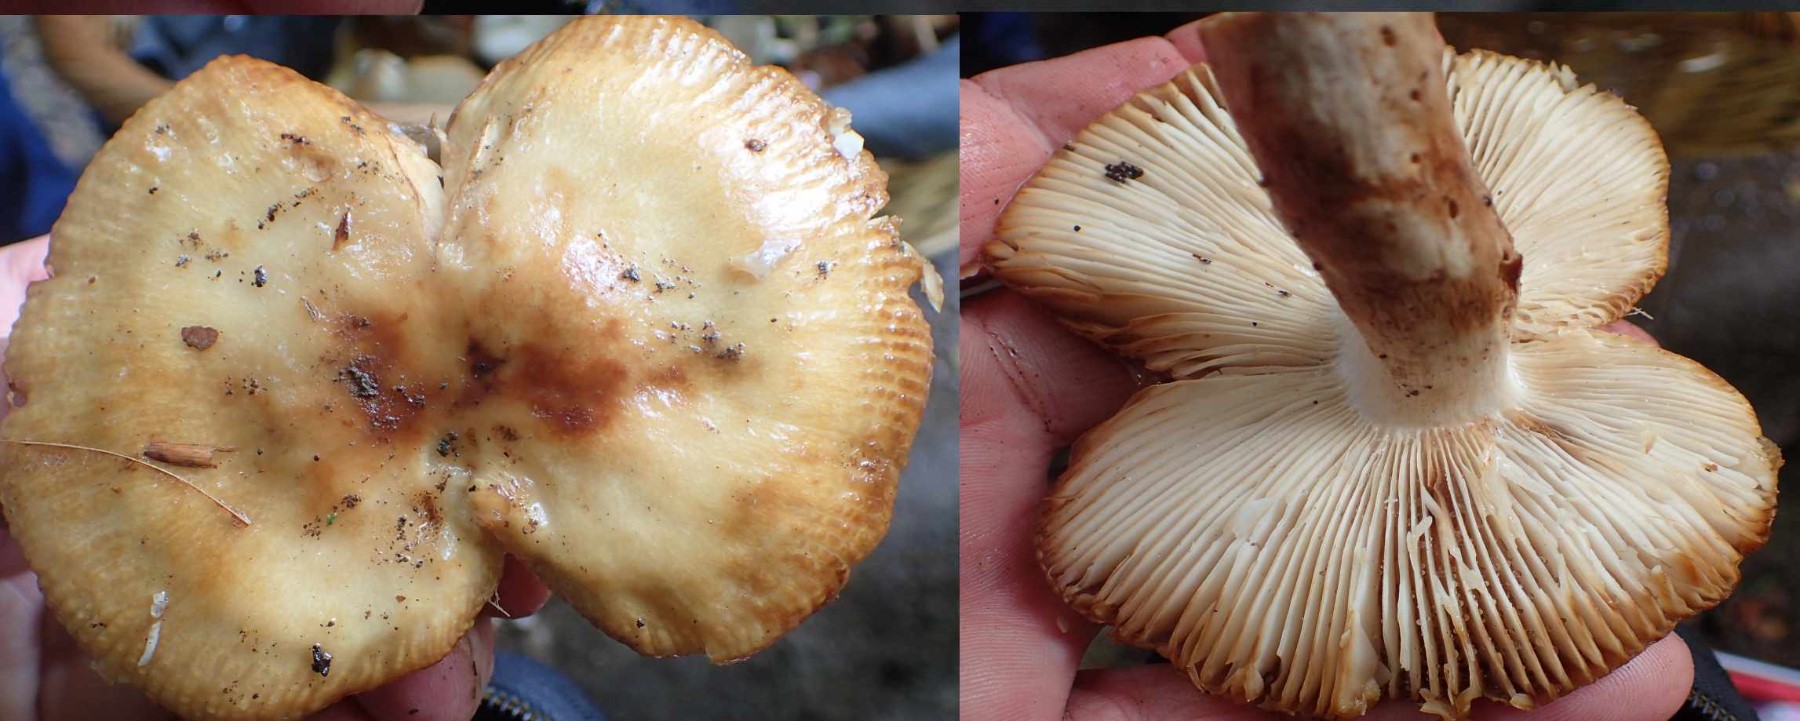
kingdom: Fungi
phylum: Basidiomycota
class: Agaricomycetes
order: Russulales
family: Russulaceae
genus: Russula
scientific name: Russula grata
